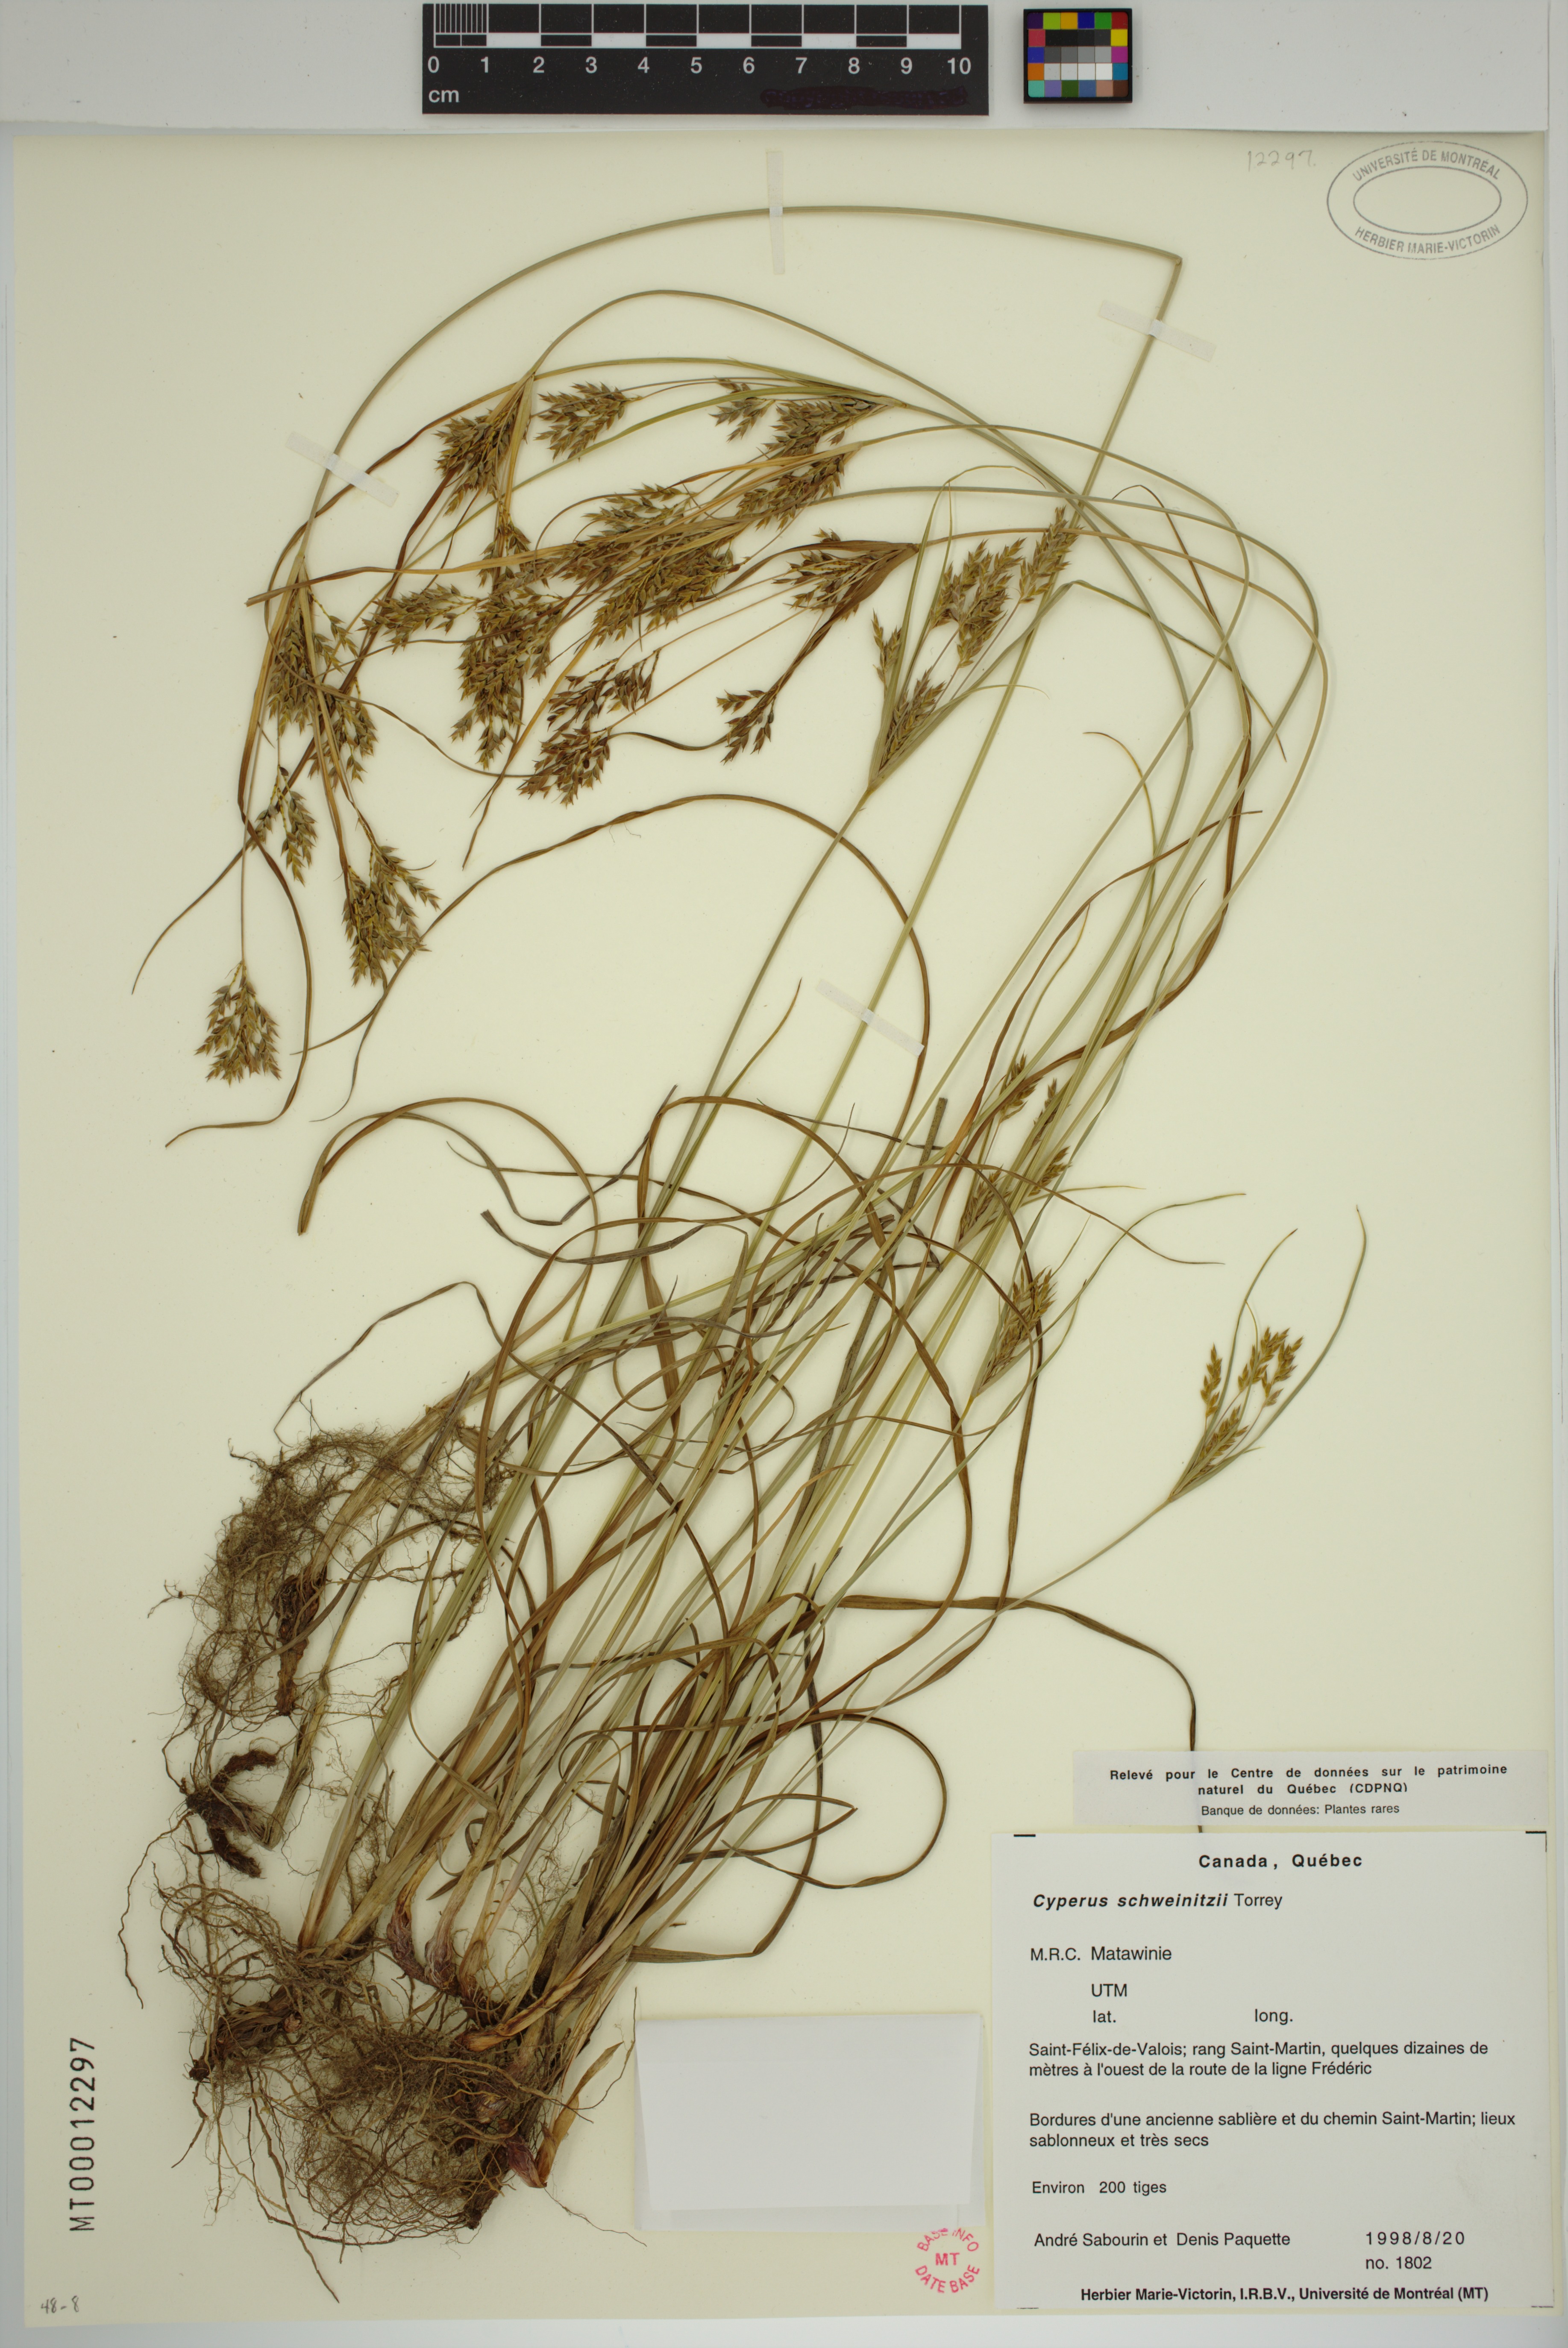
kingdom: Plantae
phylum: Tracheophyta
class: Liliopsida
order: Poales
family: Cyperaceae
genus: Cyperus
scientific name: Cyperus schweinitzii
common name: Schweinitz's cyperus
